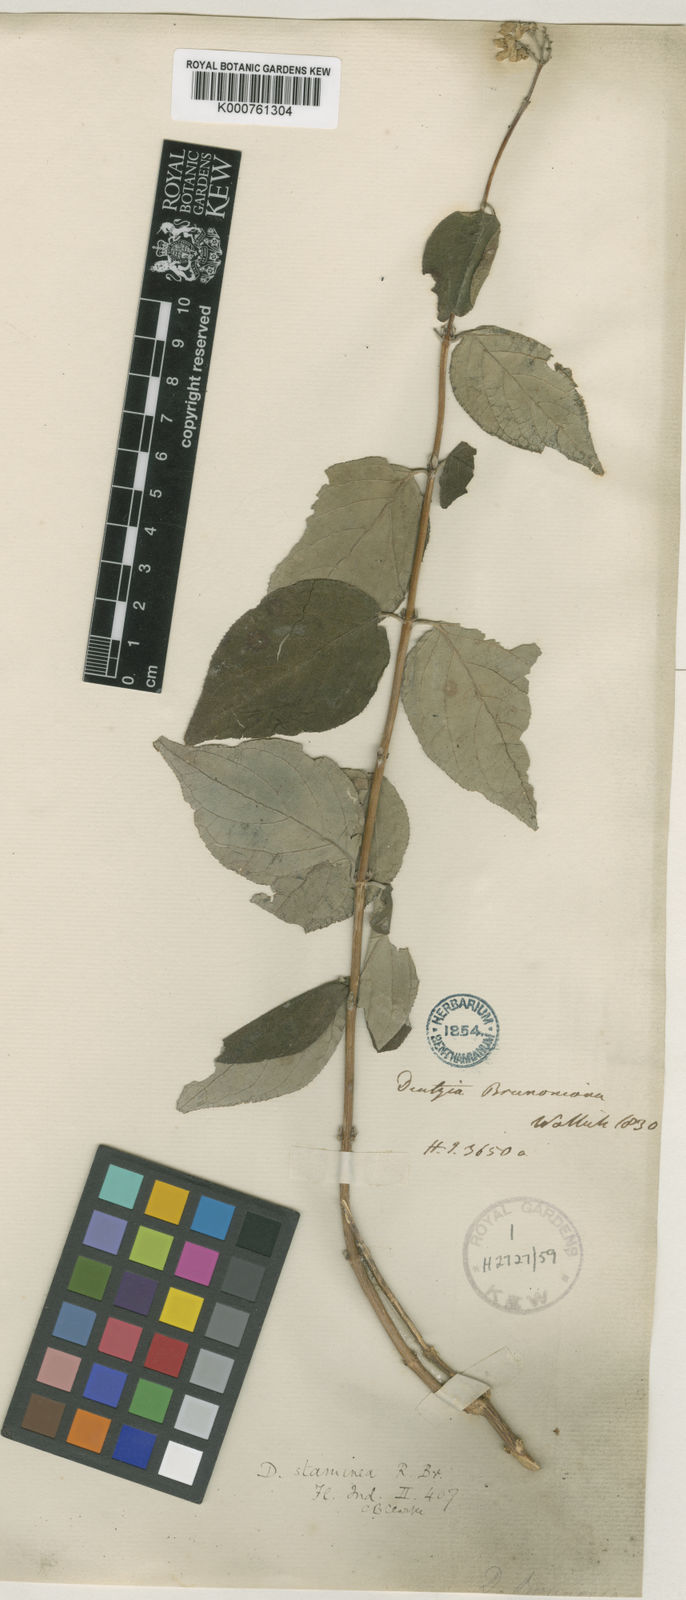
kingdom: Plantae
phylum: Tracheophyta
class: Magnoliopsida
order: Cornales
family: Hydrangeaceae
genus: Deutzia
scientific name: Deutzia
